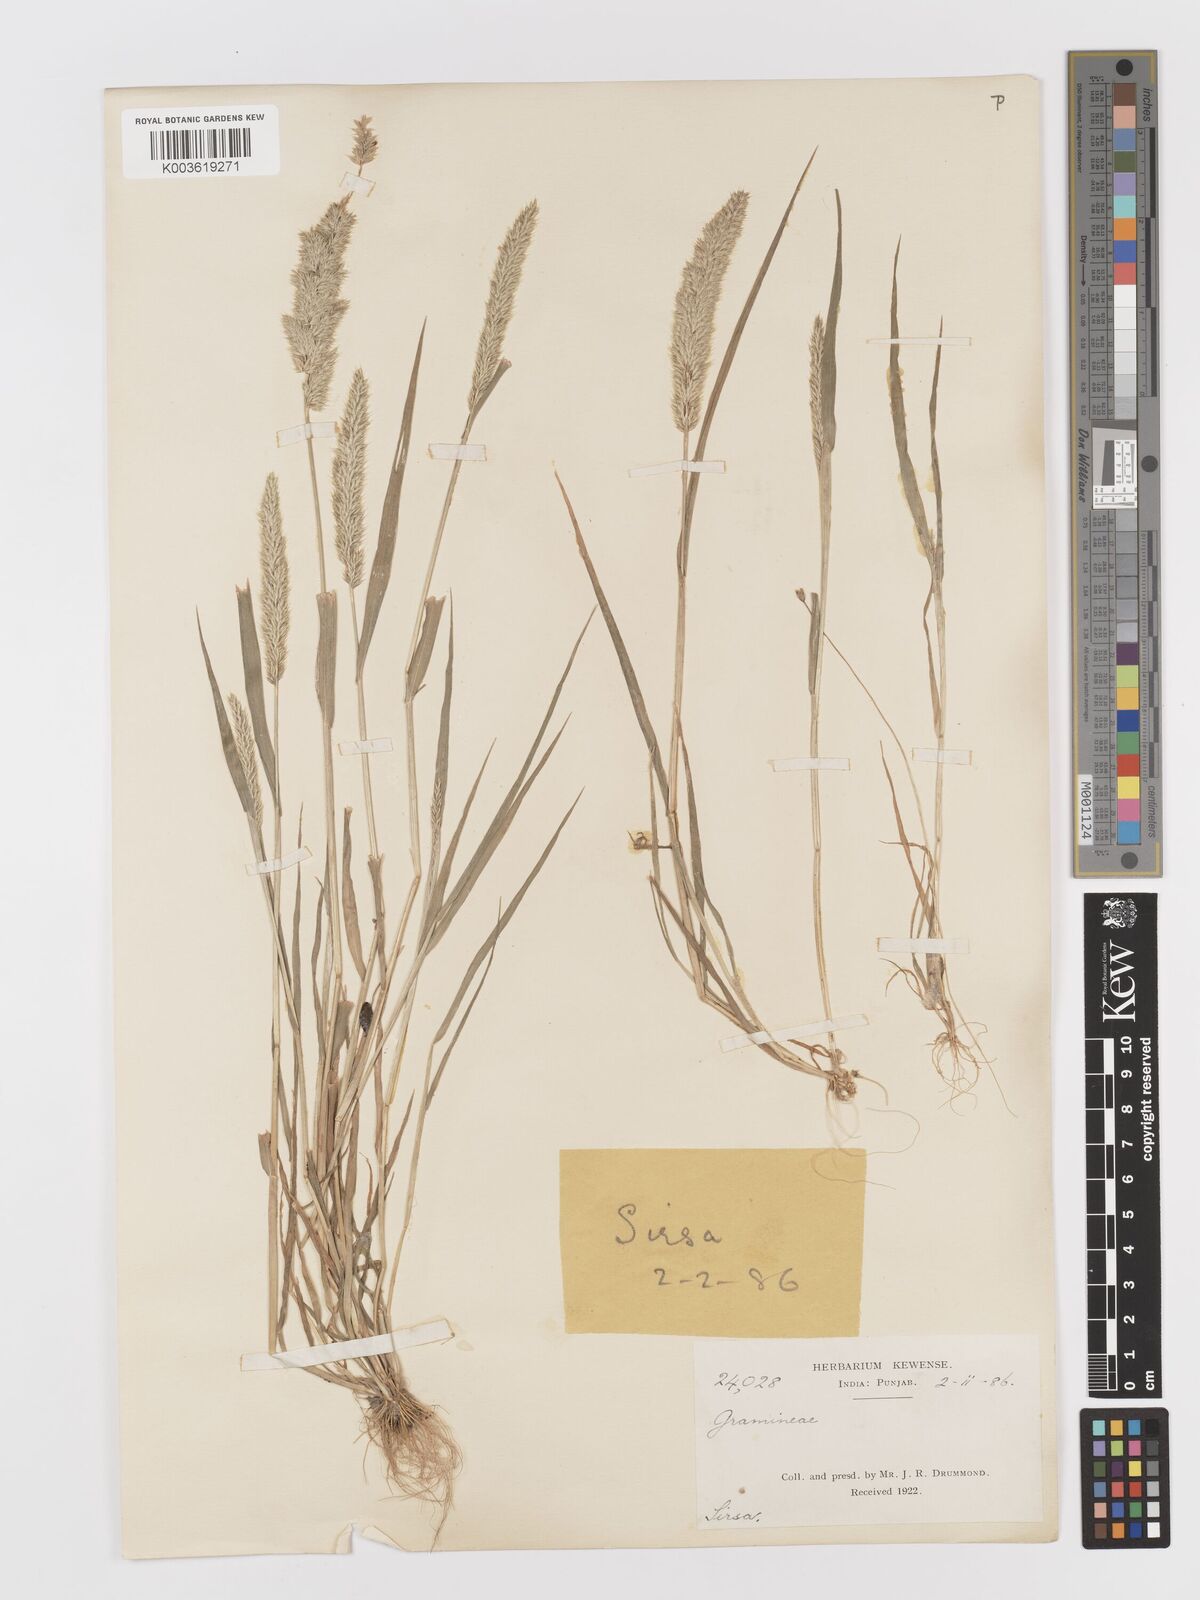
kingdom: Plantae
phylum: Tracheophyta
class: Liliopsida
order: Poales
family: Poaceae
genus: Rostraria
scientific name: Rostraria cristata
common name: Mediterranean hair-grass
